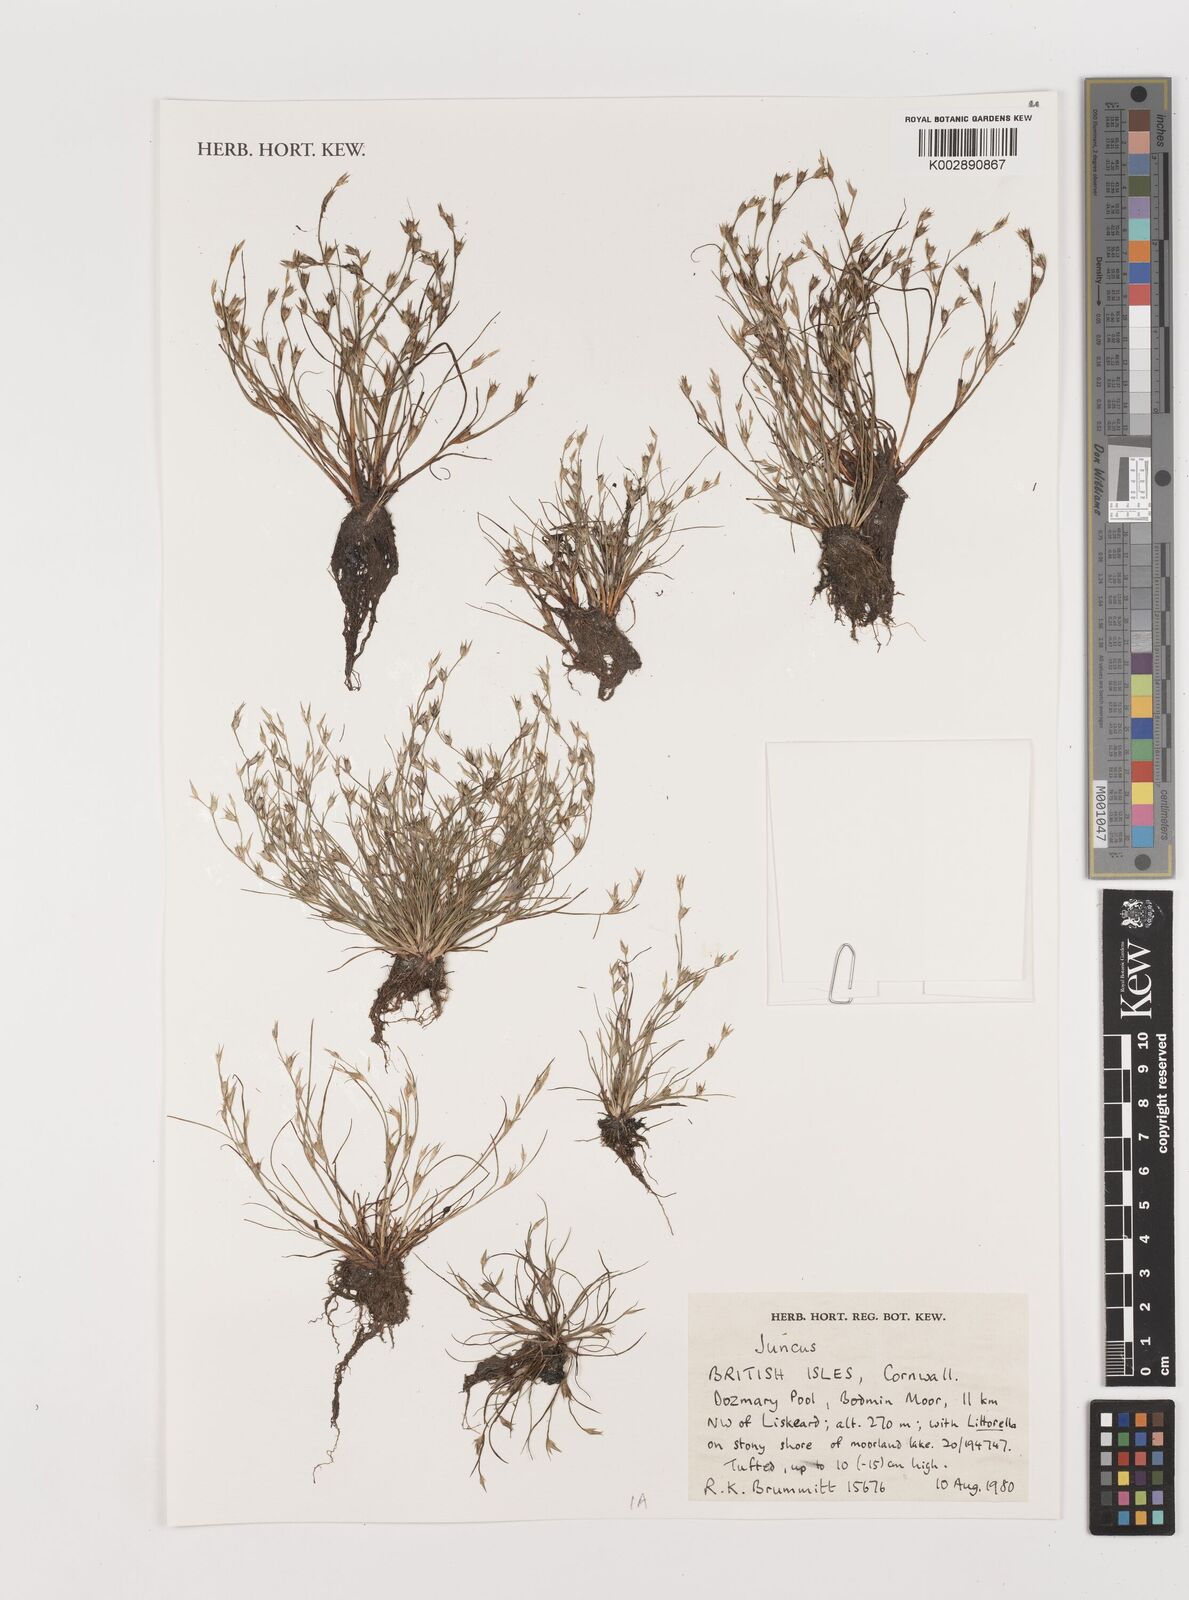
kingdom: Plantae
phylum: Tracheophyta
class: Liliopsida
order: Poales
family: Juncaceae
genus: Juncus
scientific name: Juncus
